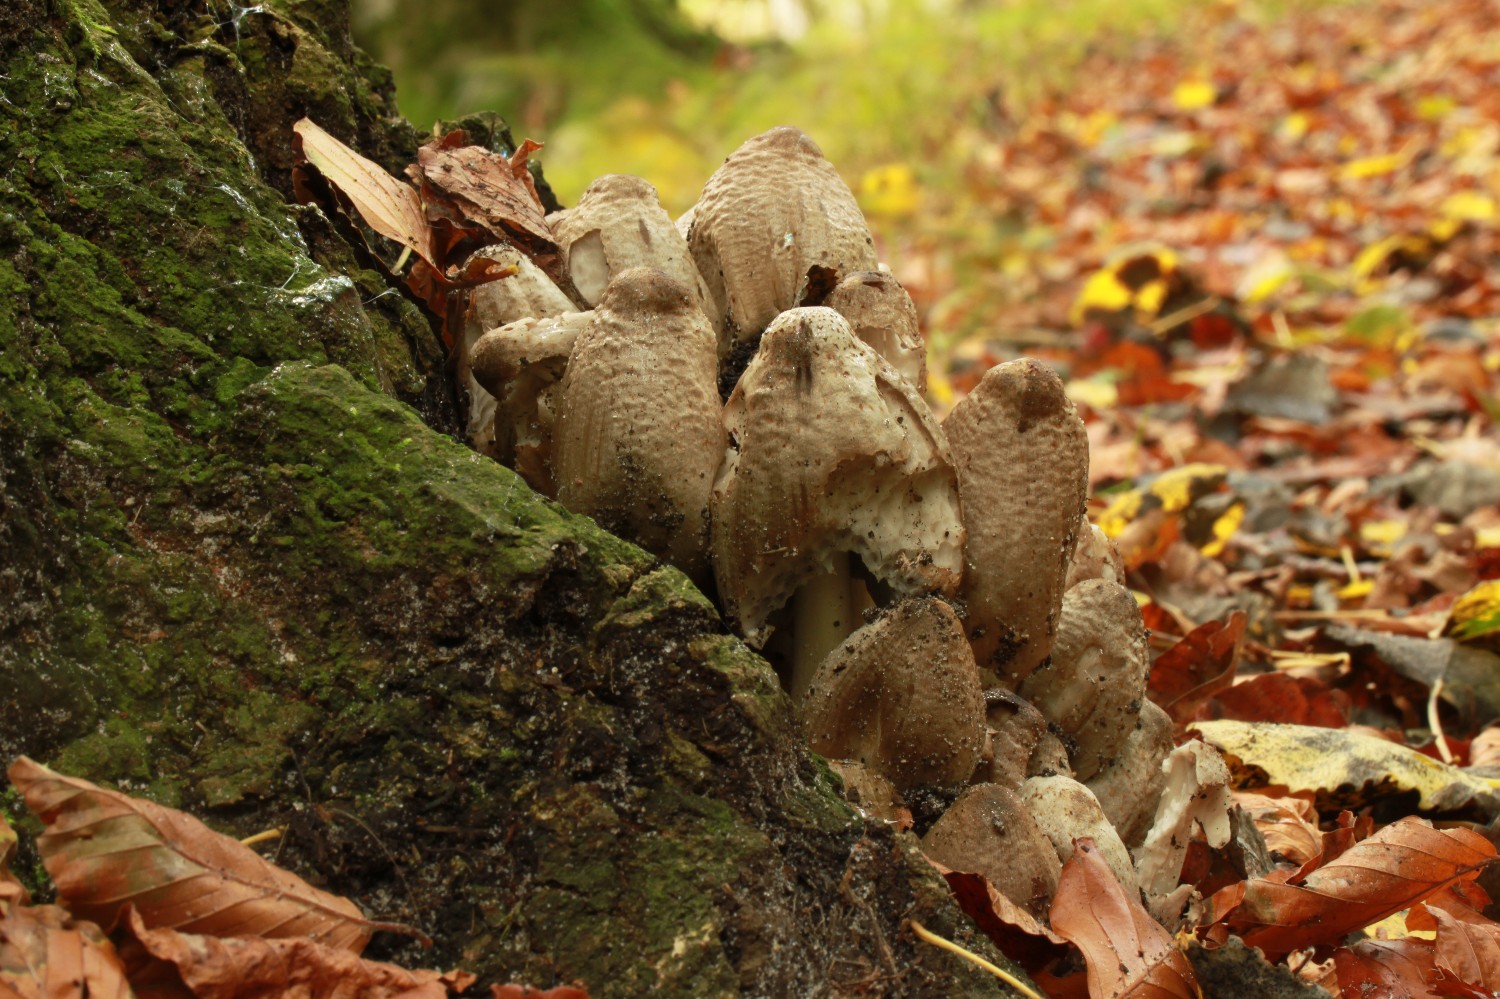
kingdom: Fungi
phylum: Basidiomycota
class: Agaricomycetes
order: Agaricales
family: Psathyrellaceae
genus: Coprinopsis
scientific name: Coprinopsis romagnesiana
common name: brunskællet blækhat
